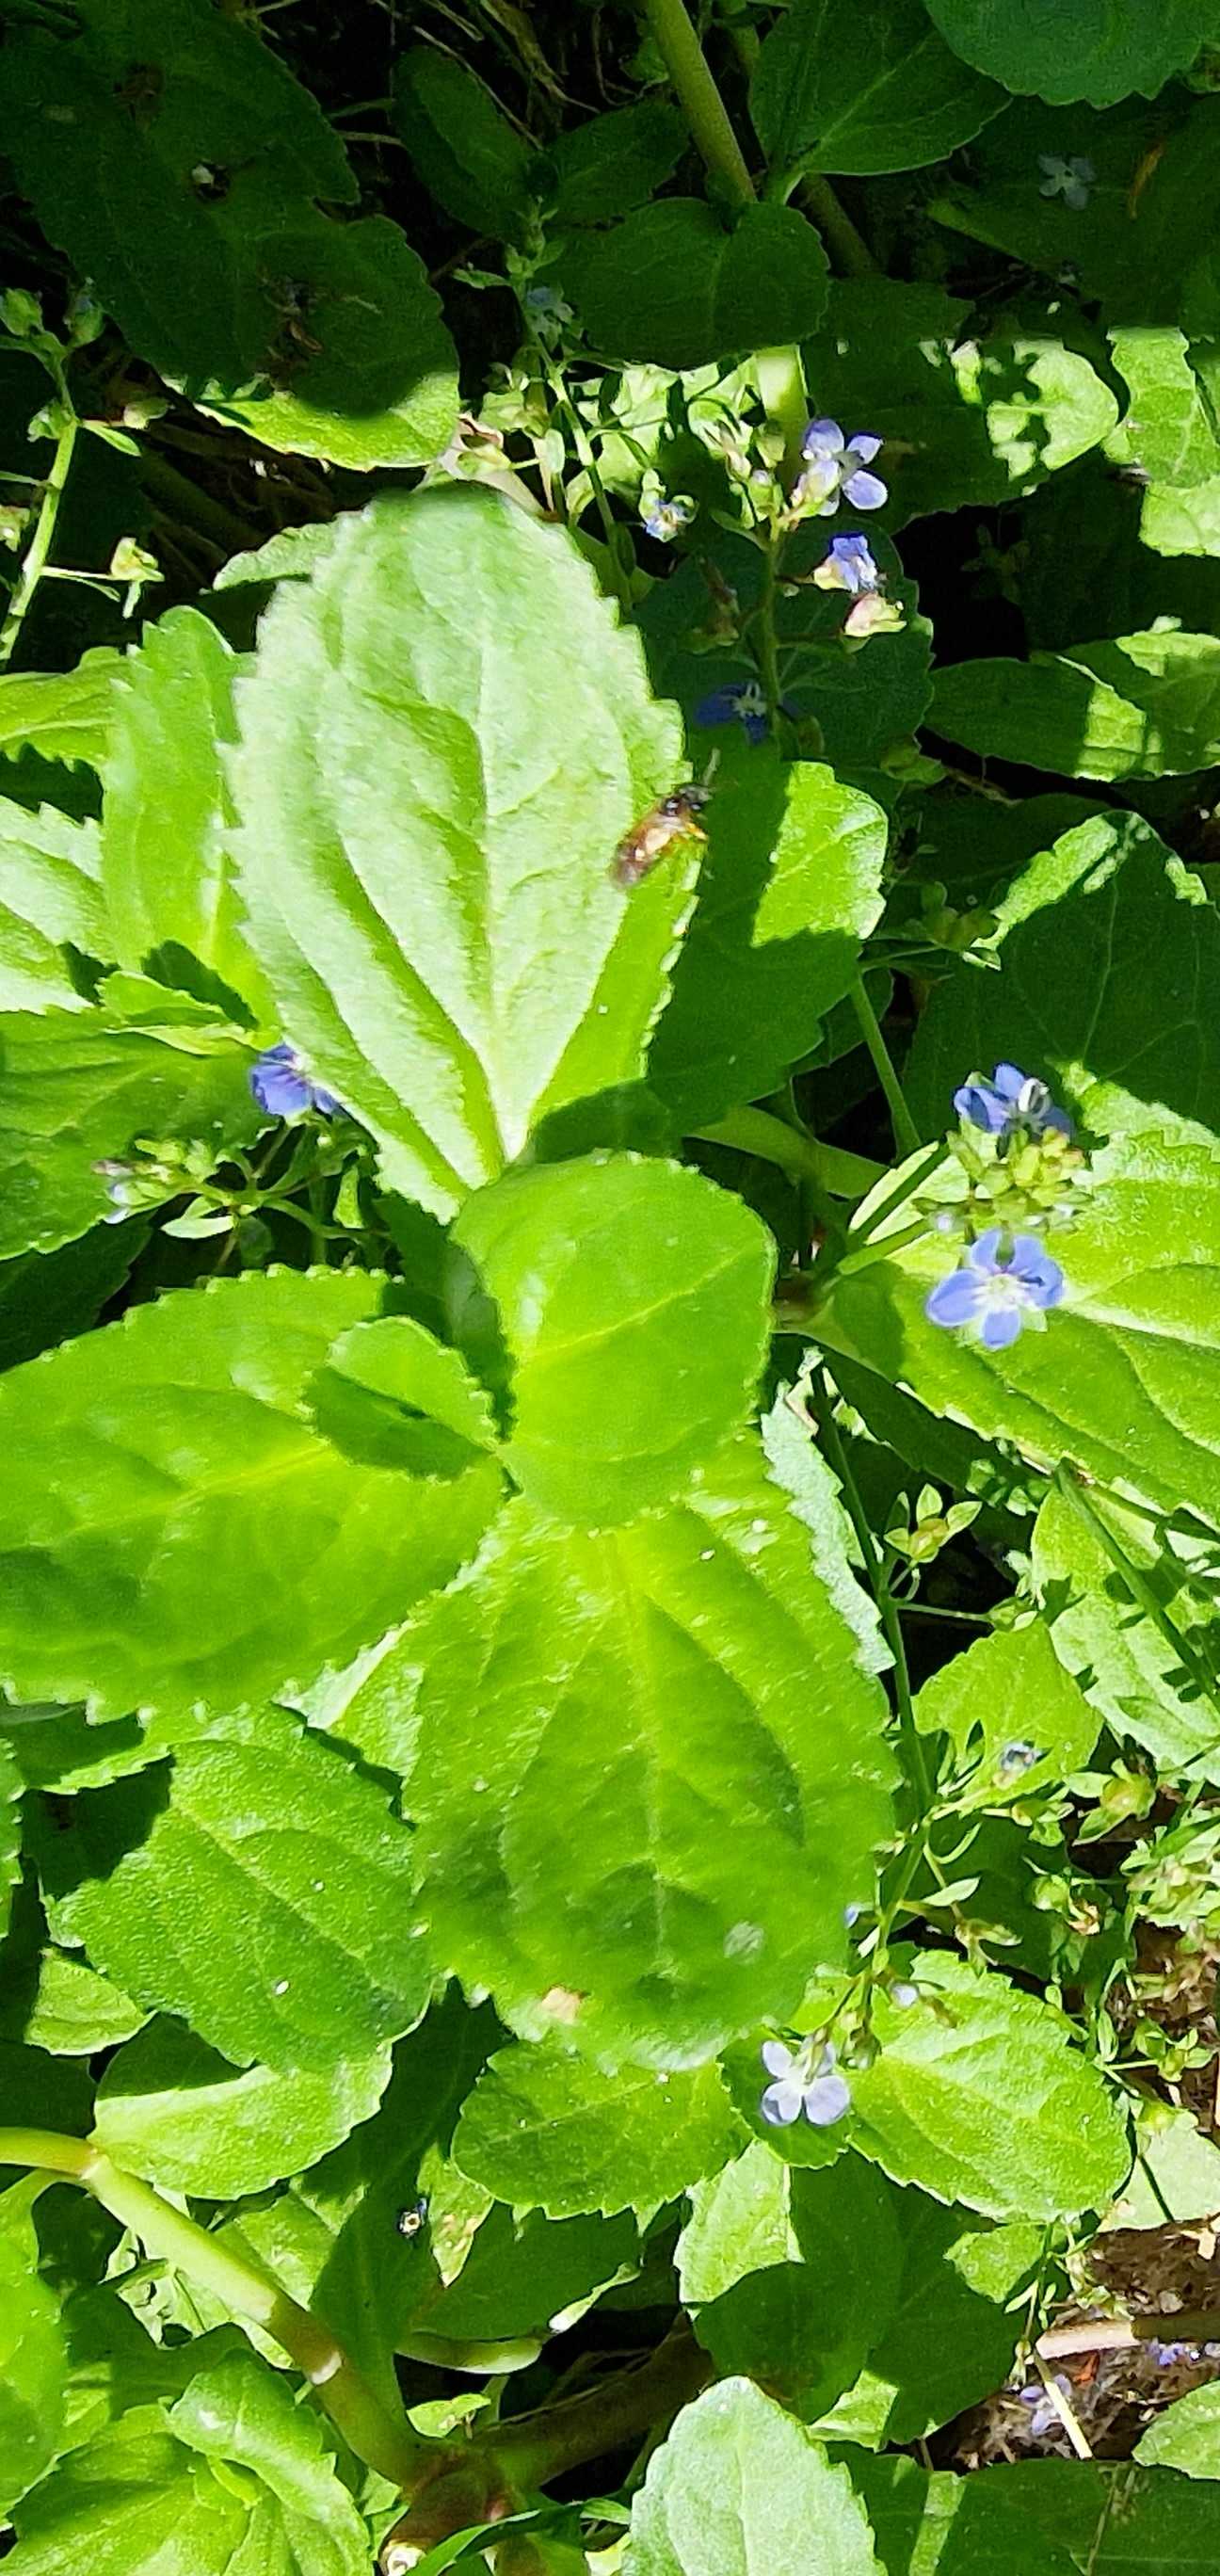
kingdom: Plantae
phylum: Tracheophyta
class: Magnoliopsida
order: Lamiales
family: Plantaginaceae
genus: Veronica
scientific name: Veronica beccabunga
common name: Tykbladet ærenpris
